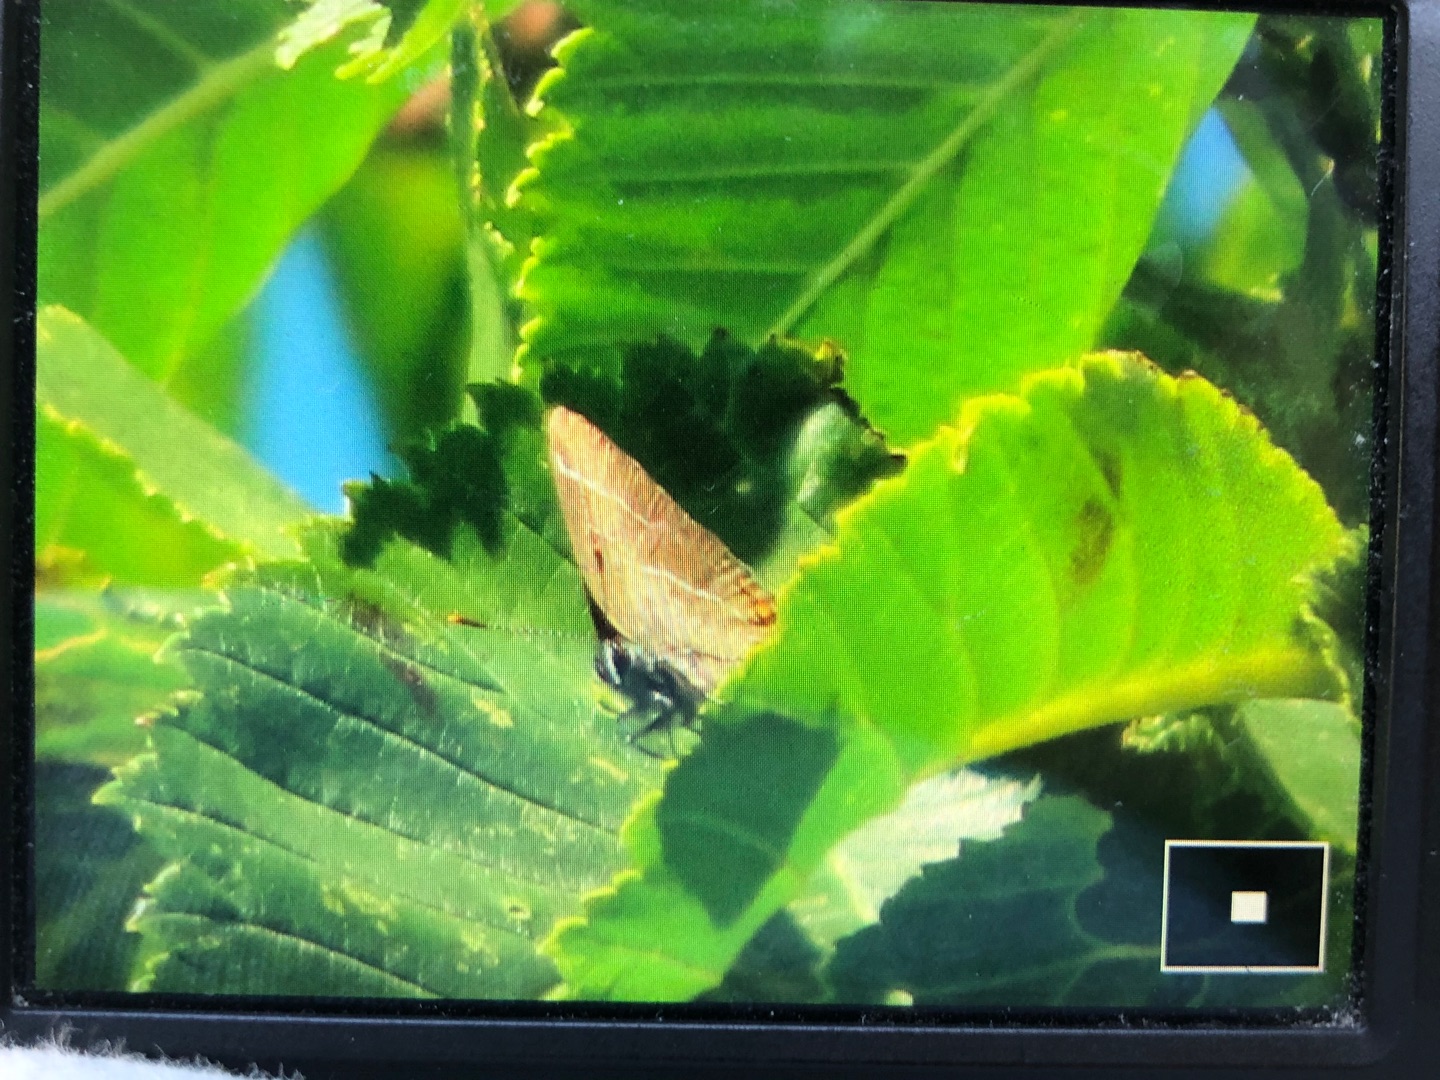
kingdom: Animalia
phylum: Arthropoda
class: Insecta
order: Lepidoptera
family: Lycaenidae
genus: Satyrium
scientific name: Satyrium w-album
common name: Det hvide W
